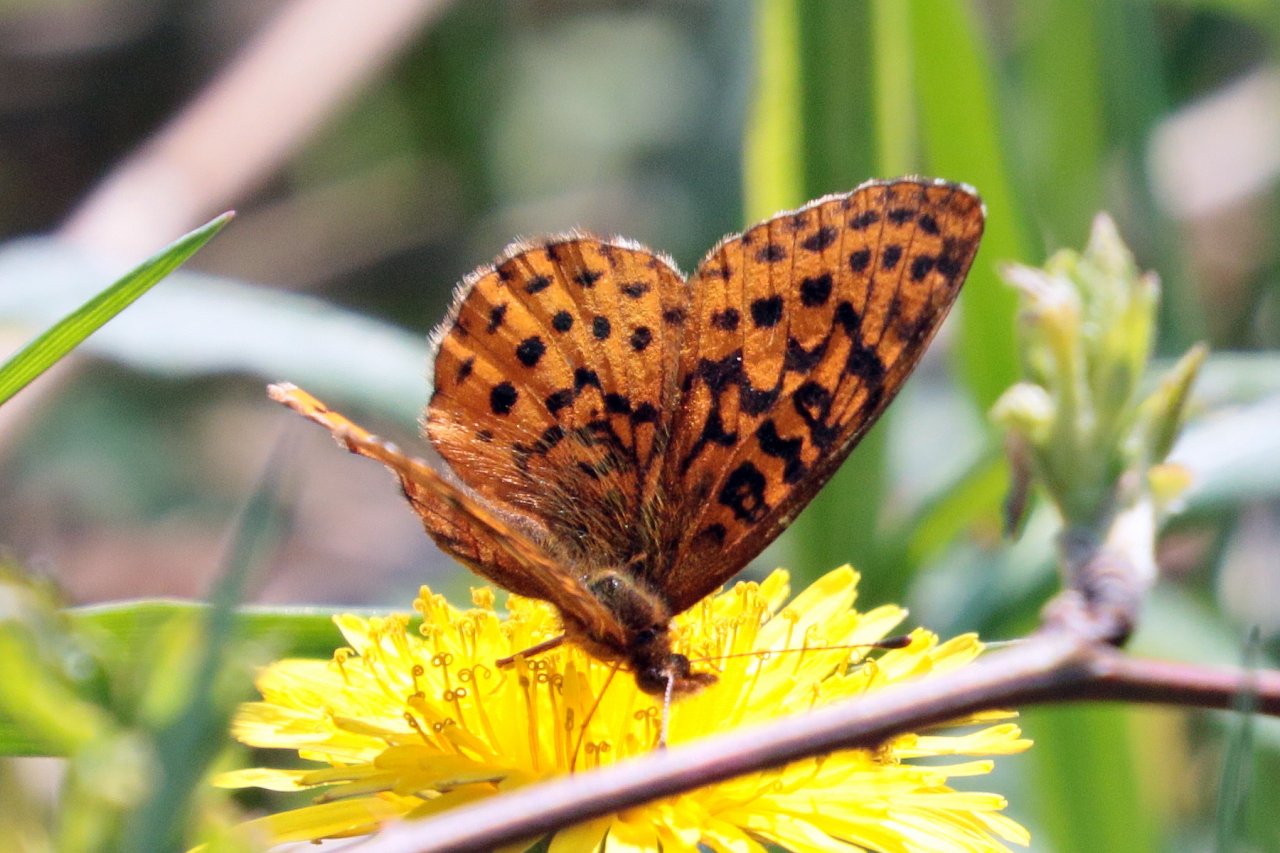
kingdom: Animalia
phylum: Arthropoda
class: Insecta
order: Lepidoptera
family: Nymphalidae
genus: Clossiana
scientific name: Clossiana toddi
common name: Meadow Fritillary
